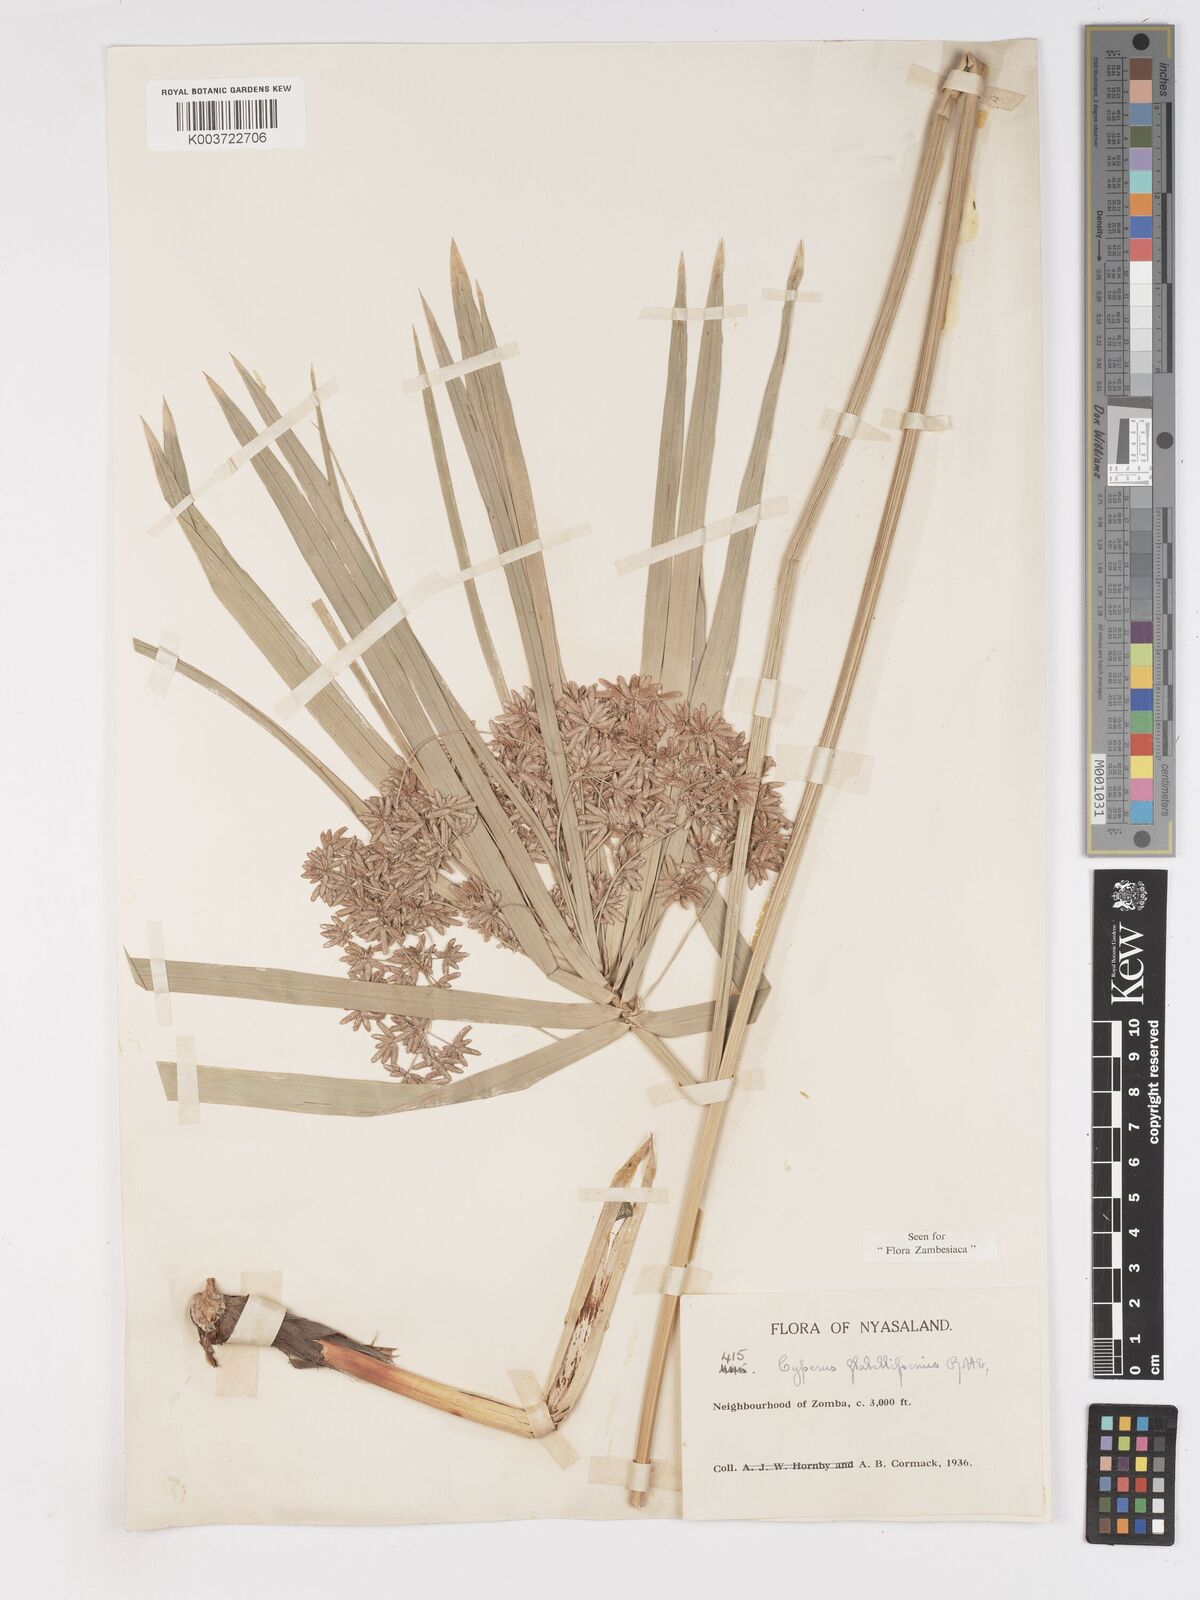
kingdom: Plantae
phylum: Tracheophyta
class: Liliopsida
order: Poales
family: Cyperaceae
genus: Cyperus
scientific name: Cyperus alternifolius
